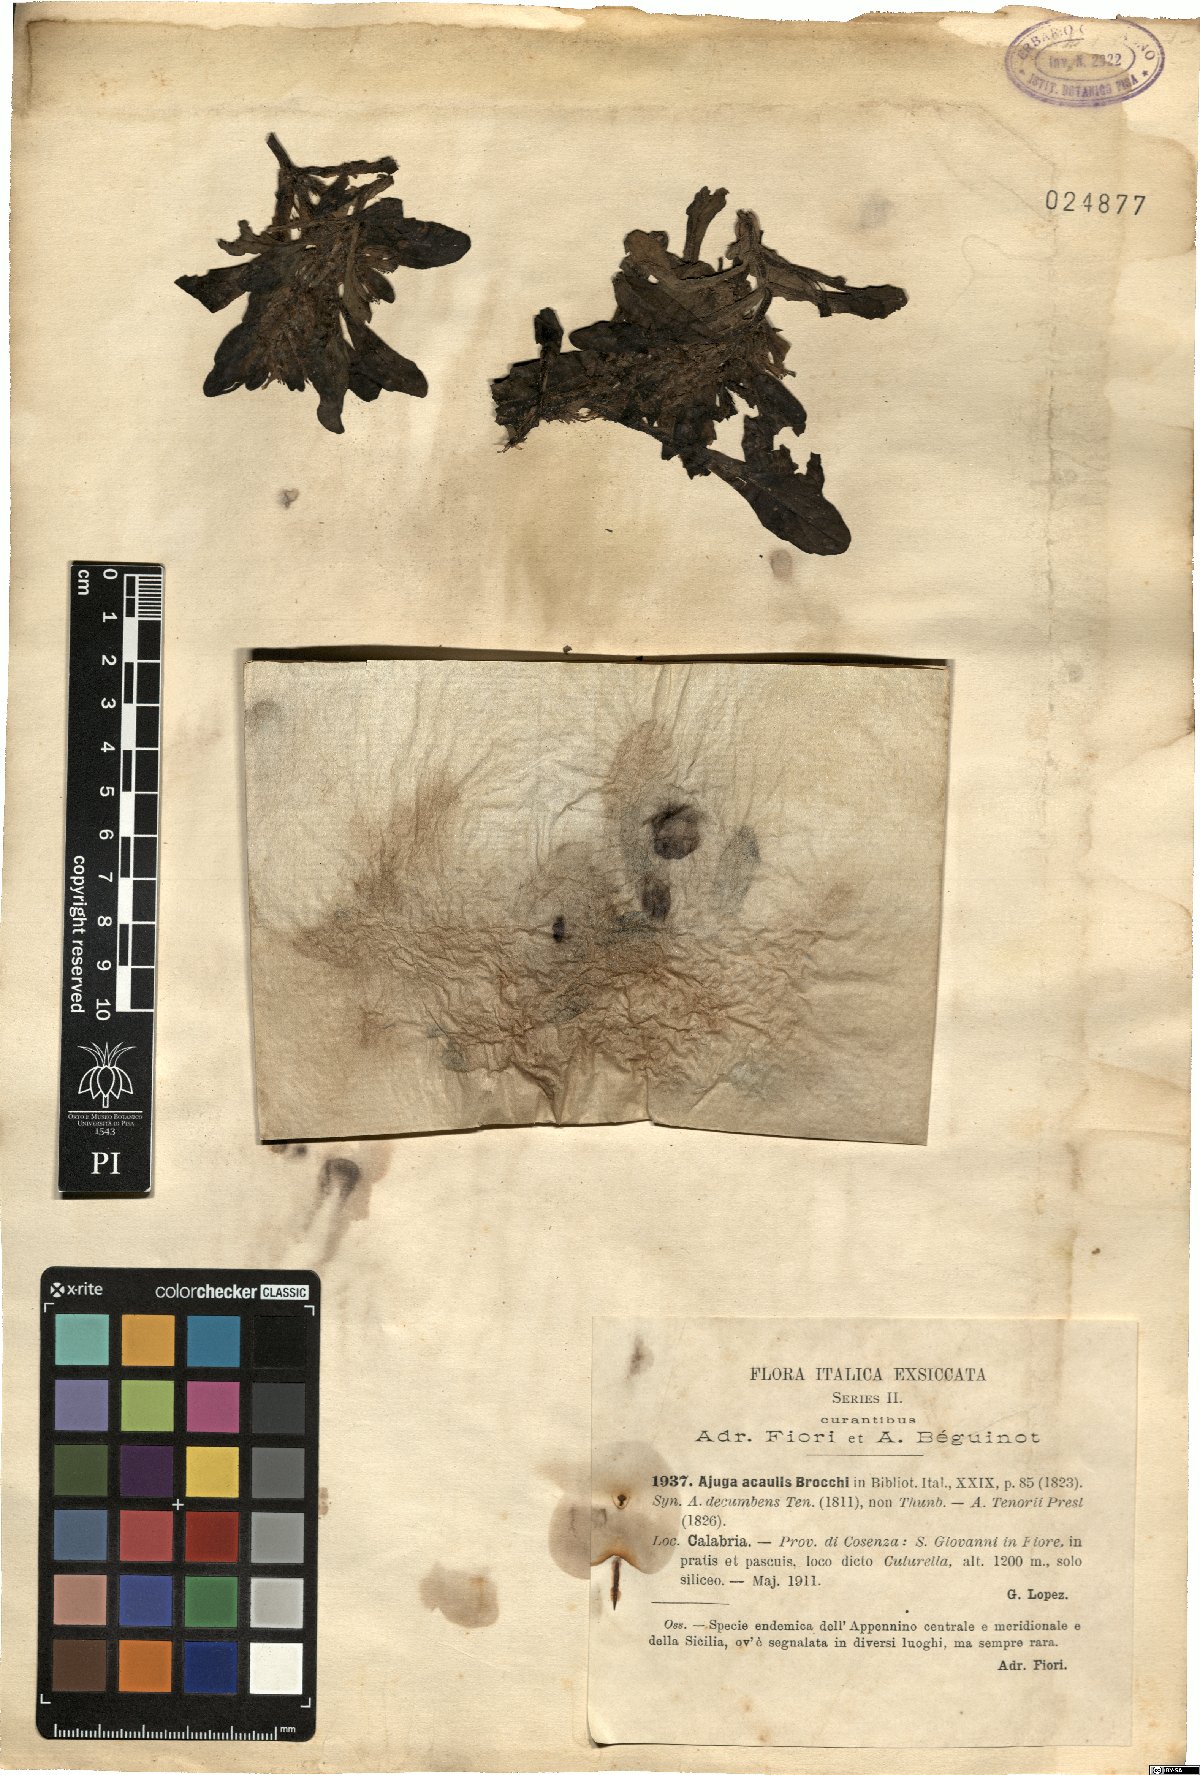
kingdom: Plantae
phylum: Tracheophyta
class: Magnoliopsida
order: Lamiales
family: Lamiaceae
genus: Ajuga
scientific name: Ajuga tenorei
